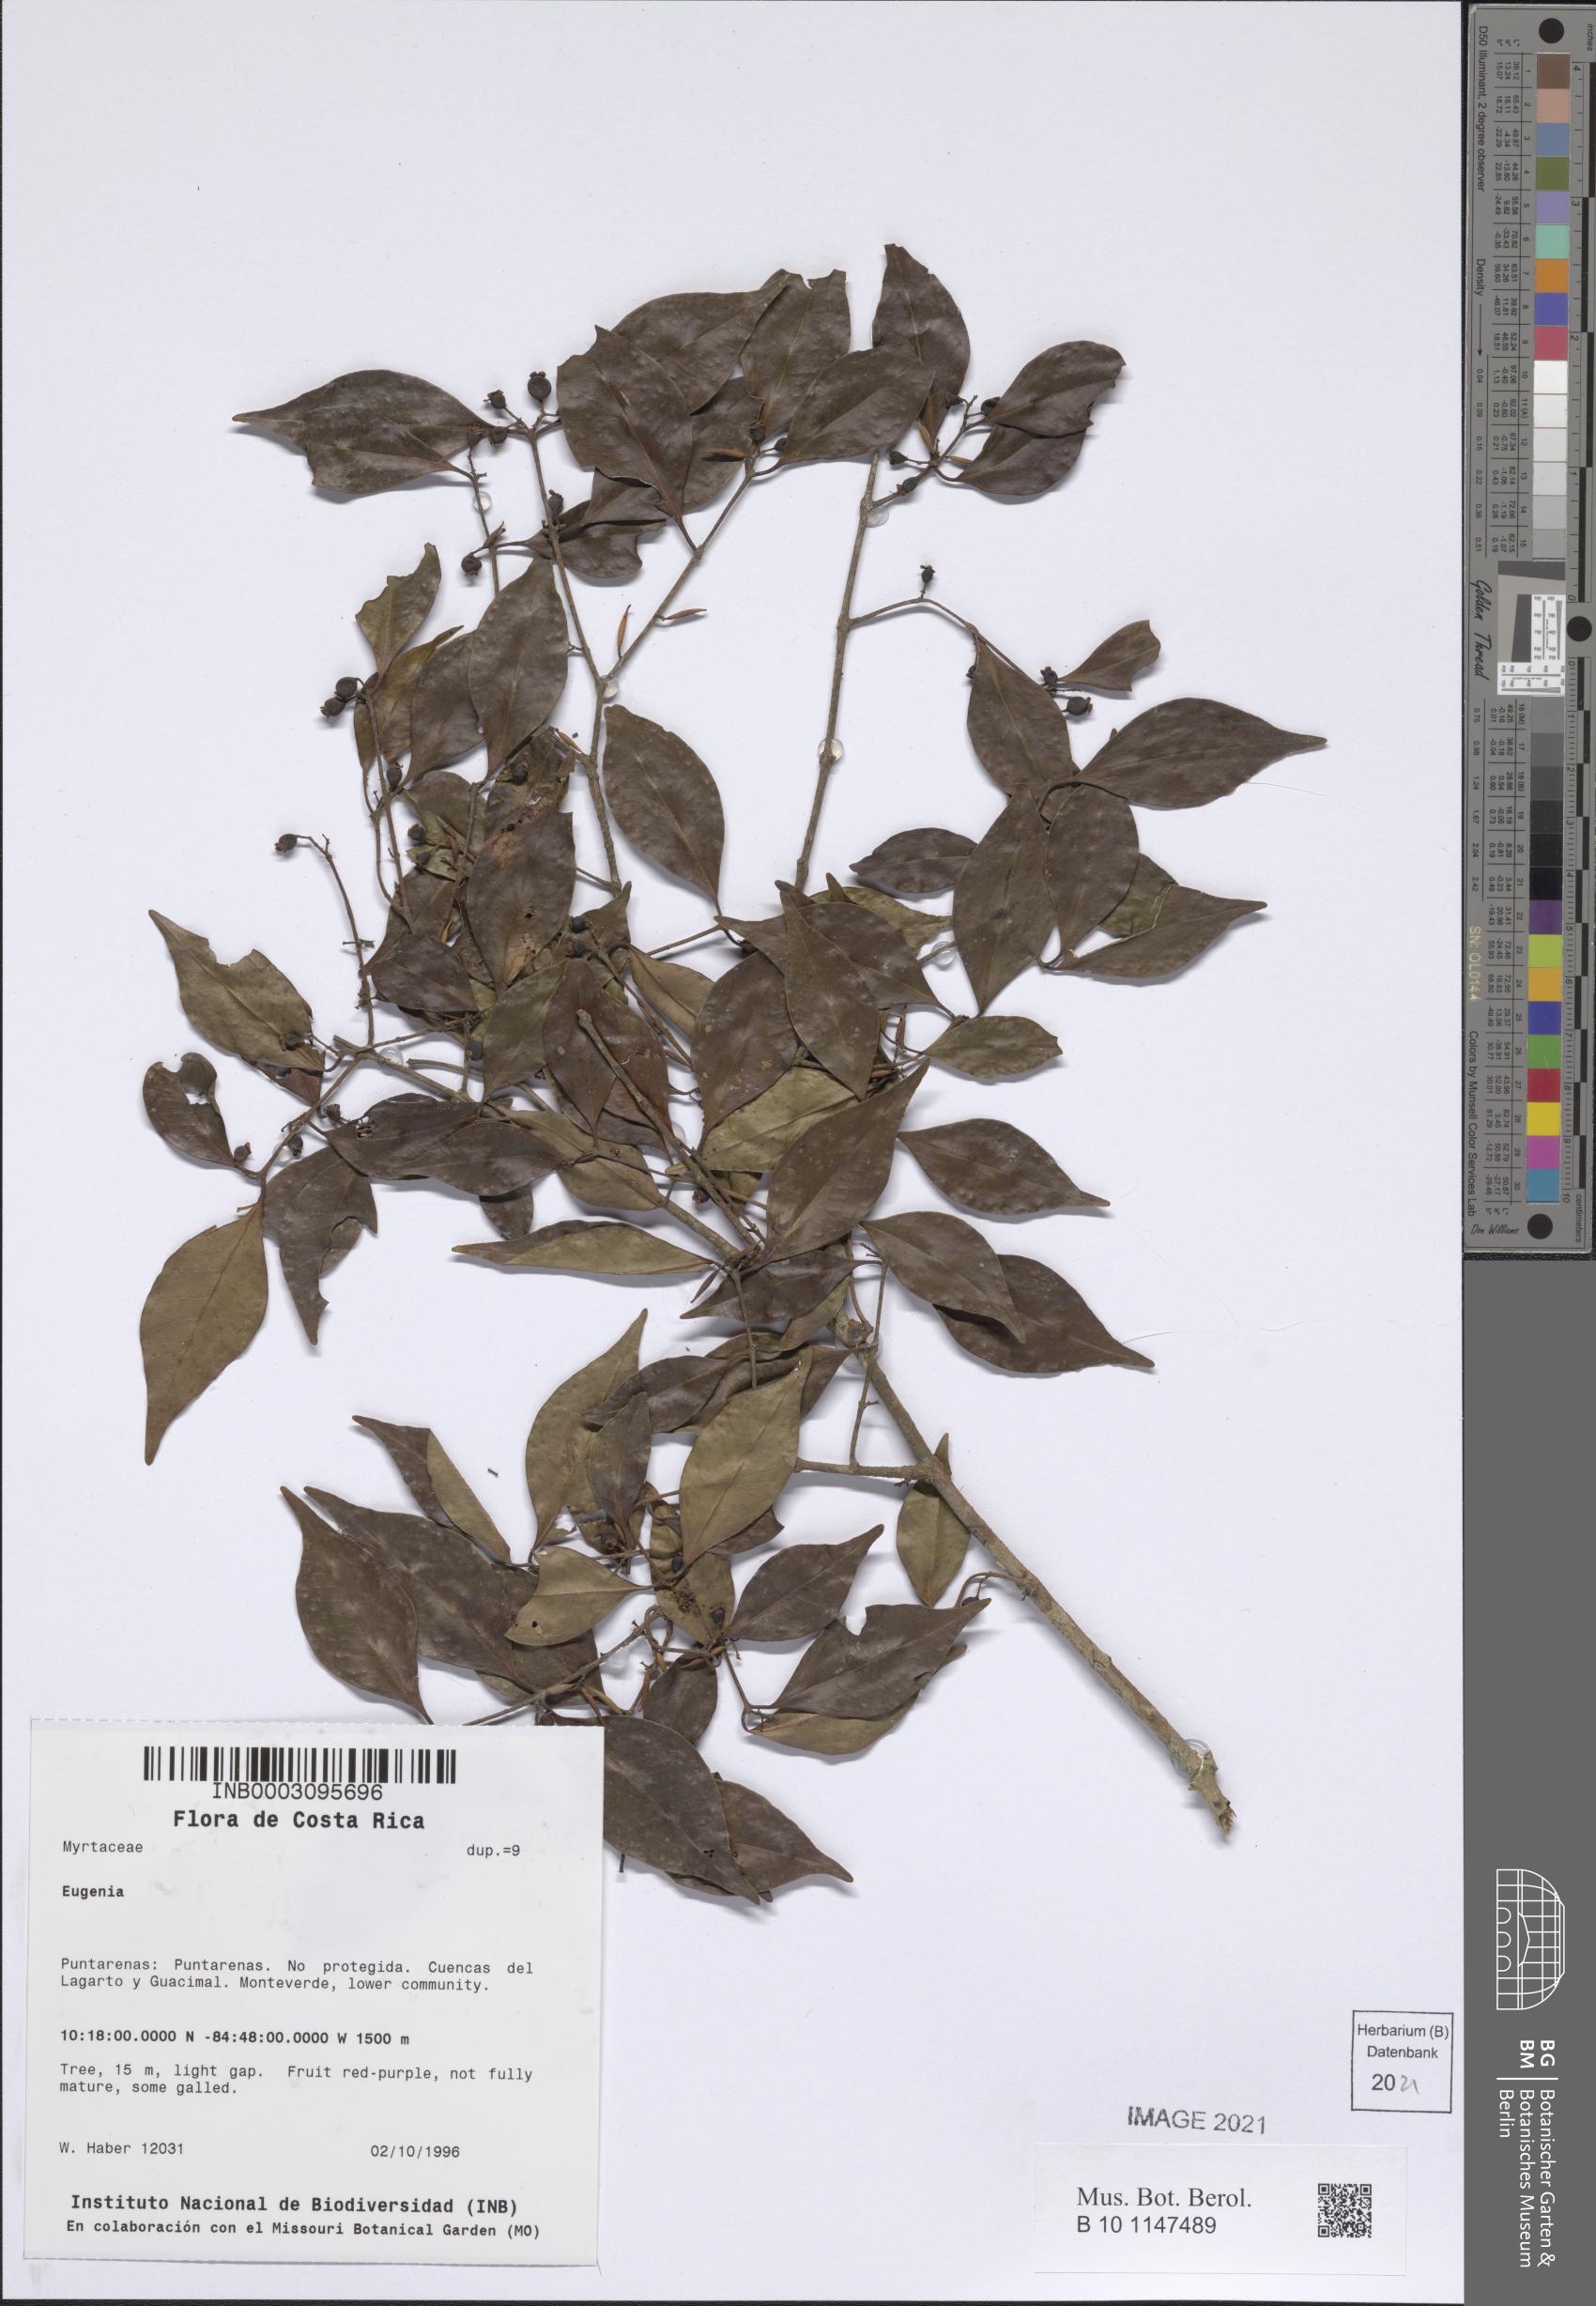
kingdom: Plantae
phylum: Tracheophyta
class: Magnoliopsida
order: Myrtales
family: Myrtaceae
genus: Eugenia
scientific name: Eugenia
